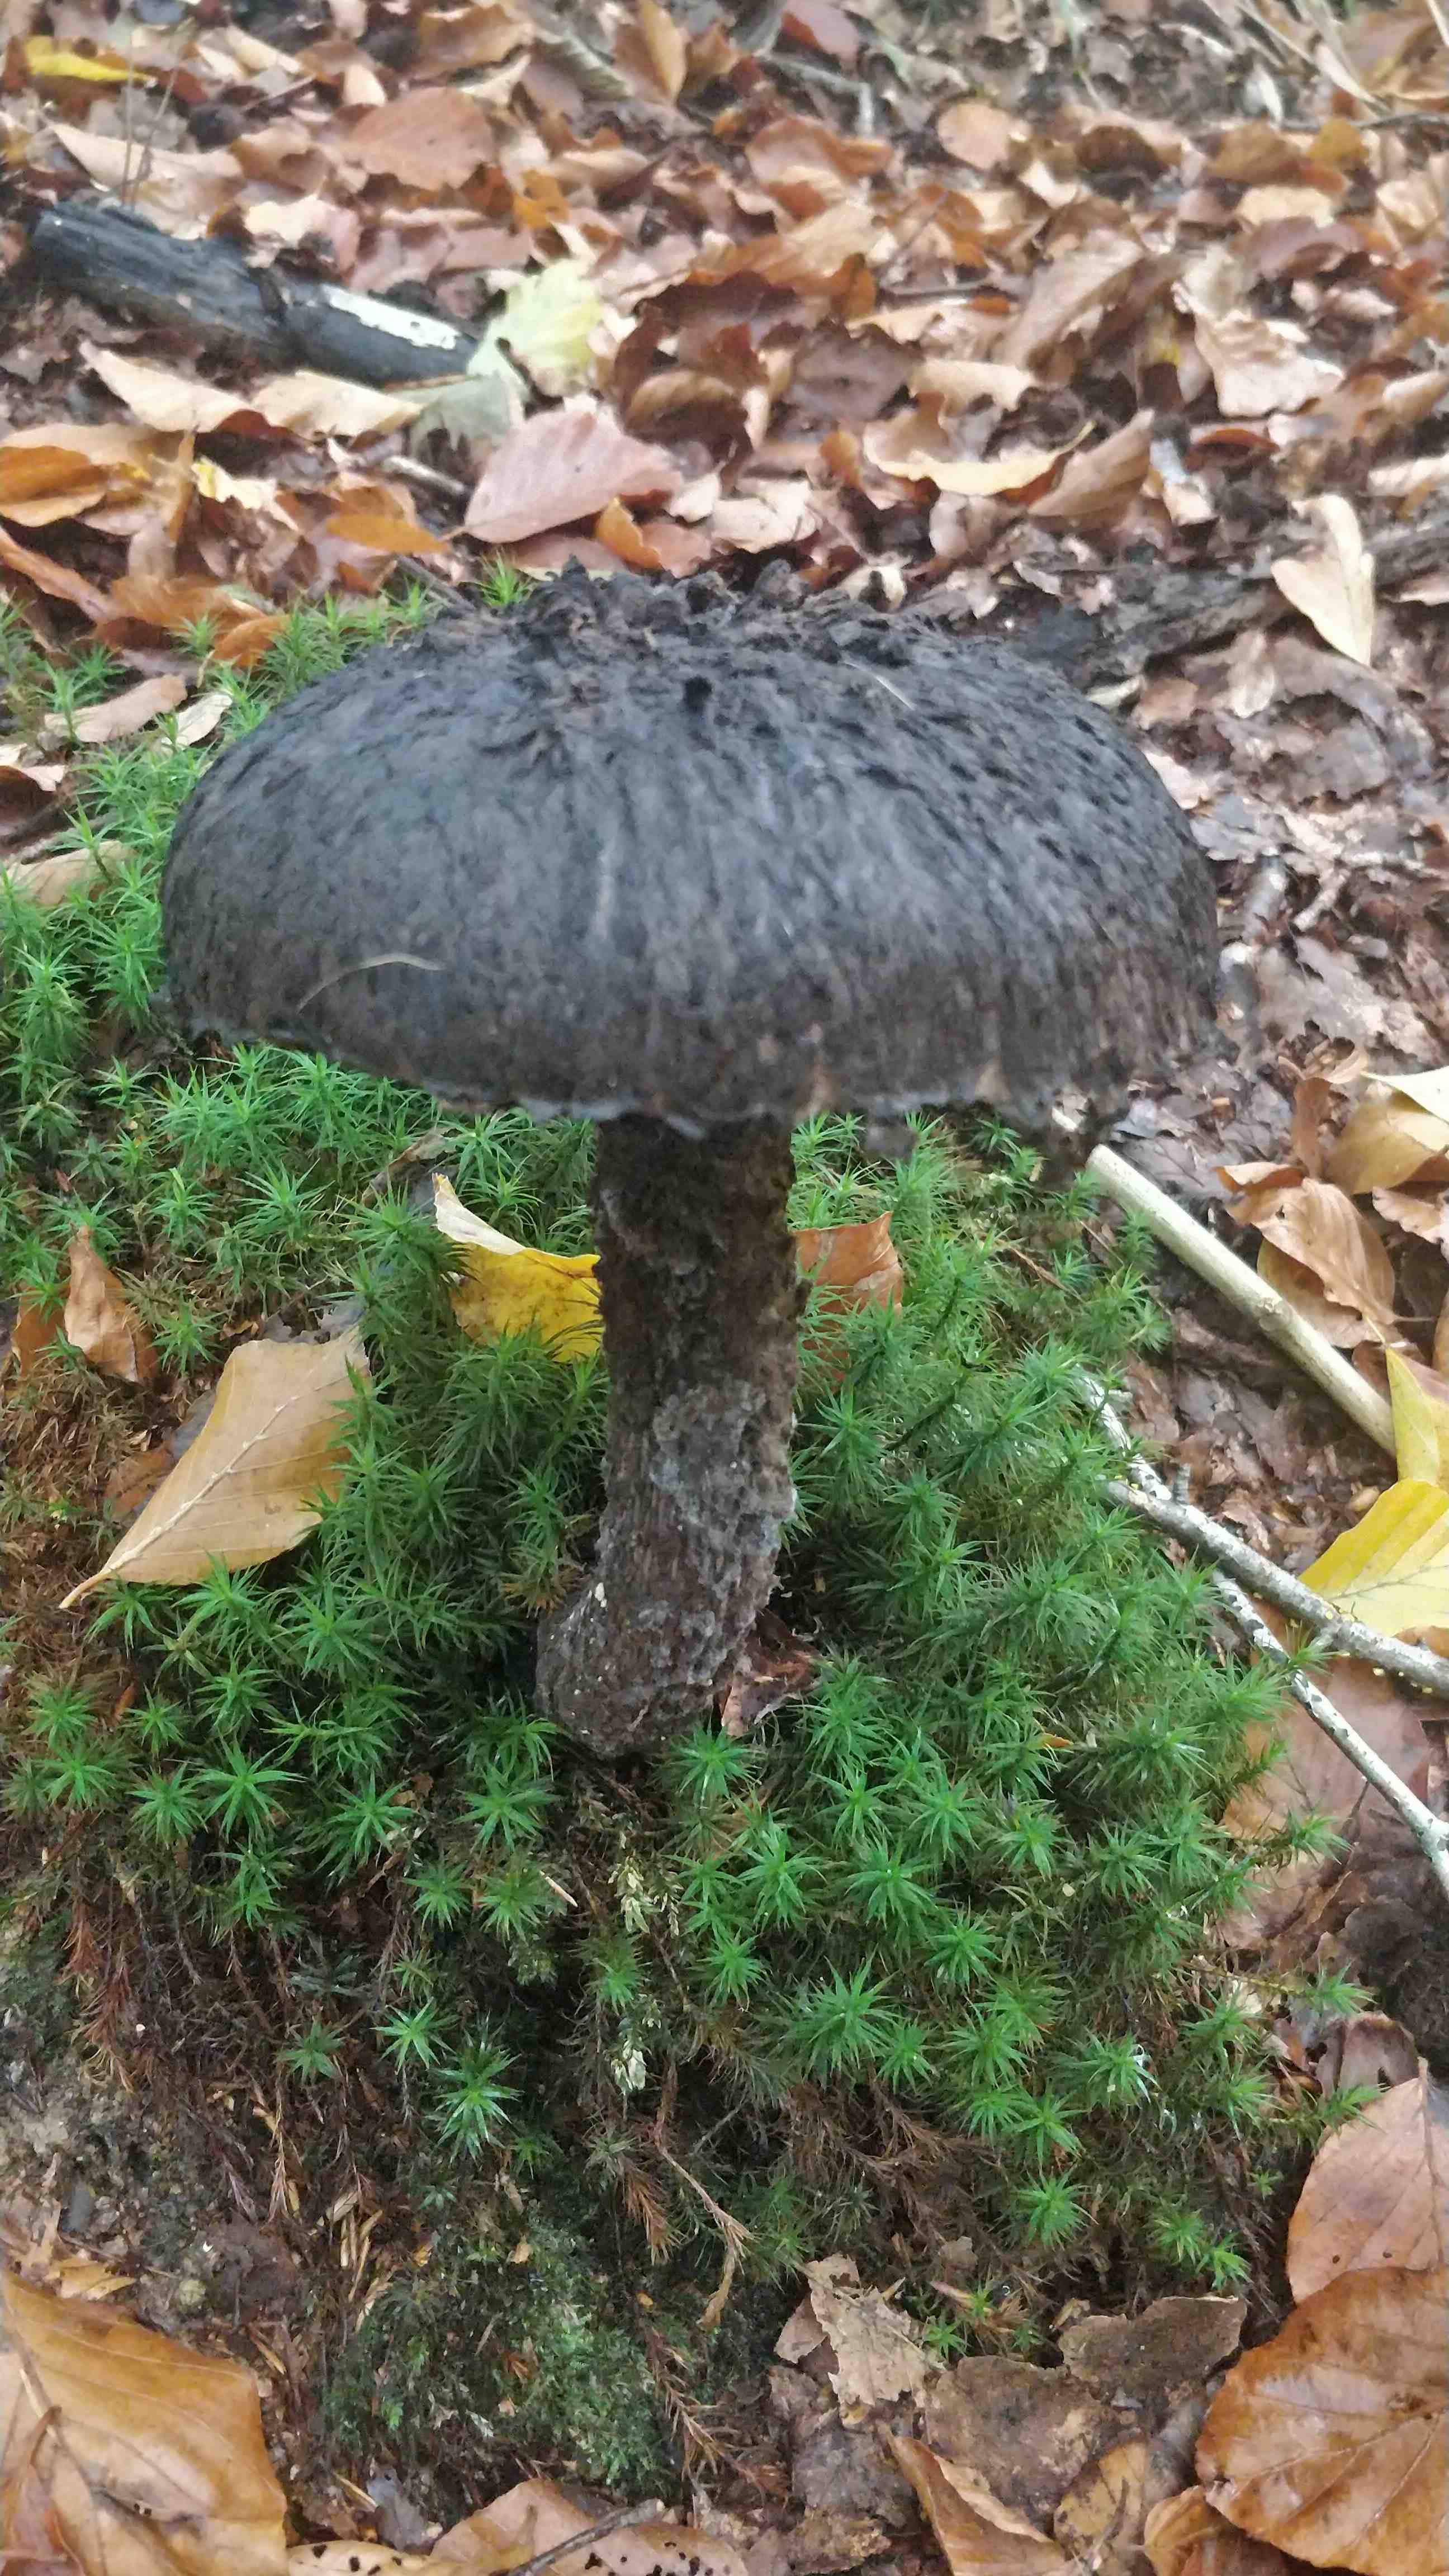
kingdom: Fungi
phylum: Basidiomycota
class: Agaricomycetes
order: Boletales
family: Boletaceae
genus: Strobilomyces
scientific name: Strobilomyces strobilaceus
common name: koglerørhat
